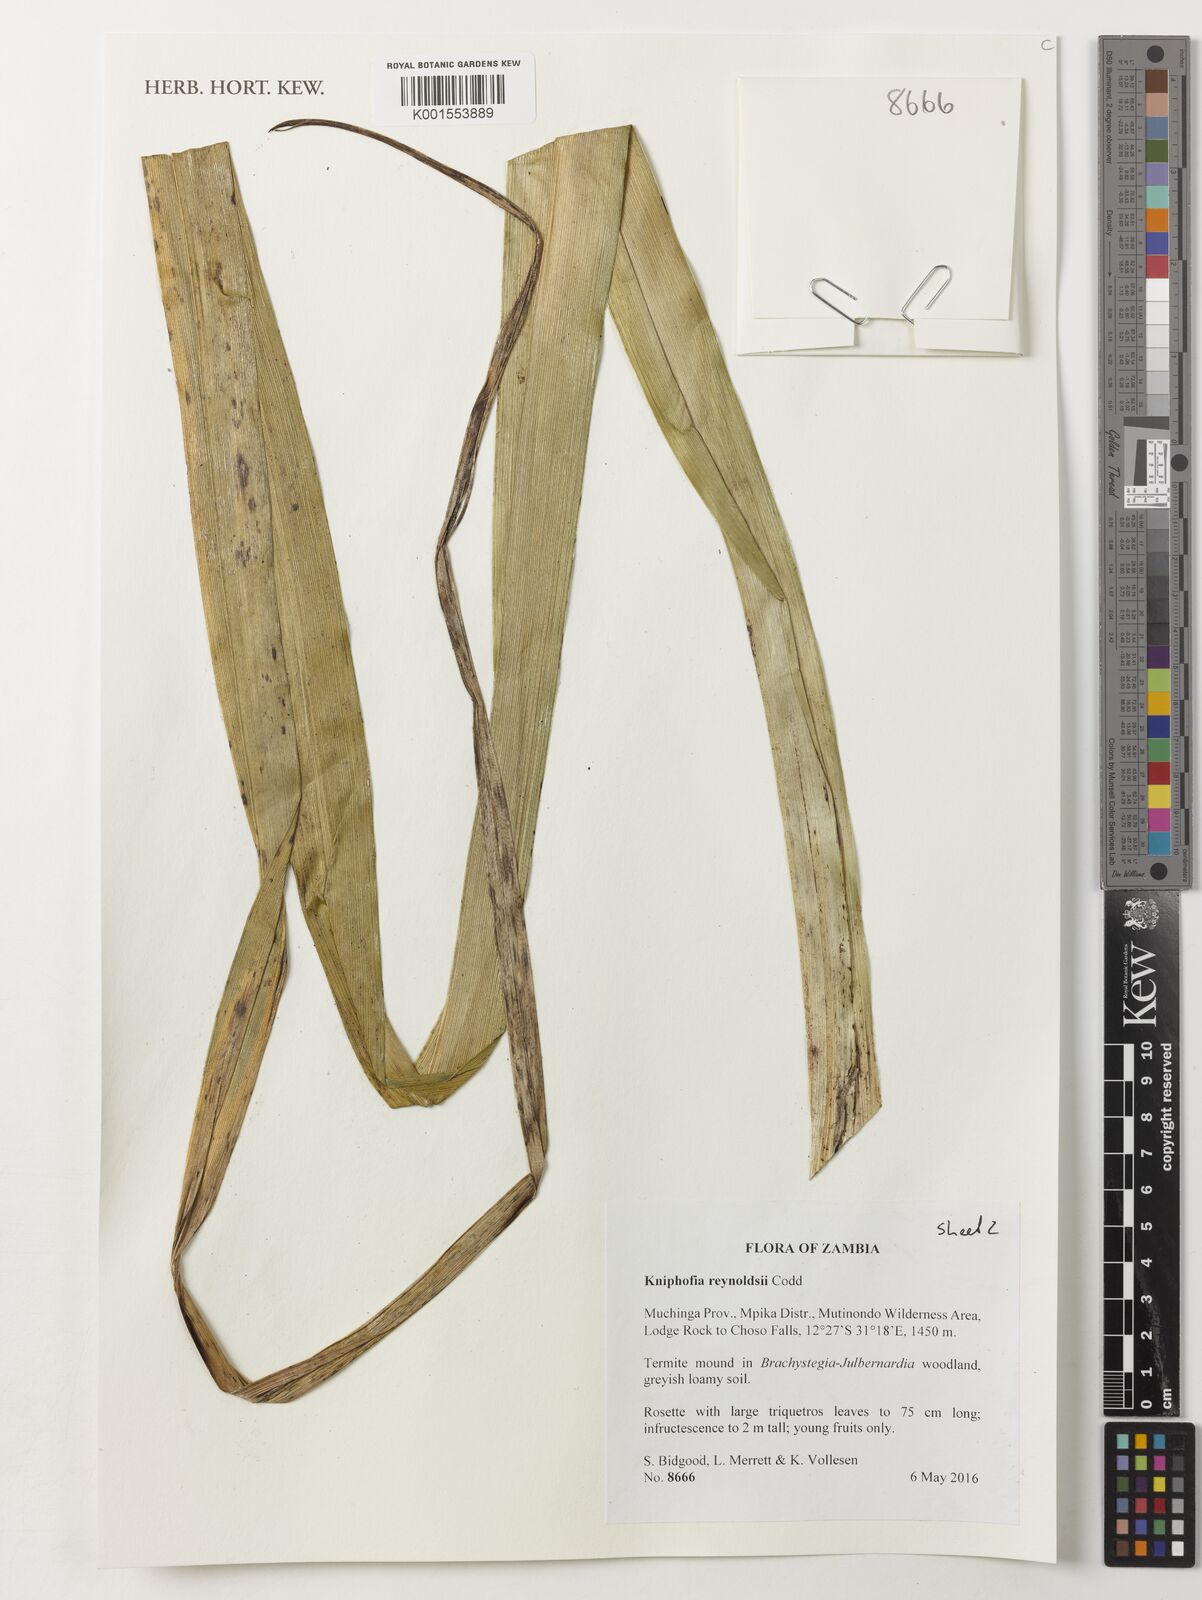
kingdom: Plantae
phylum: Tracheophyta
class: Liliopsida
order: Asparagales
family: Asphodelaceae
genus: Kniphofia
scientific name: Kniphofia reynoldsii
